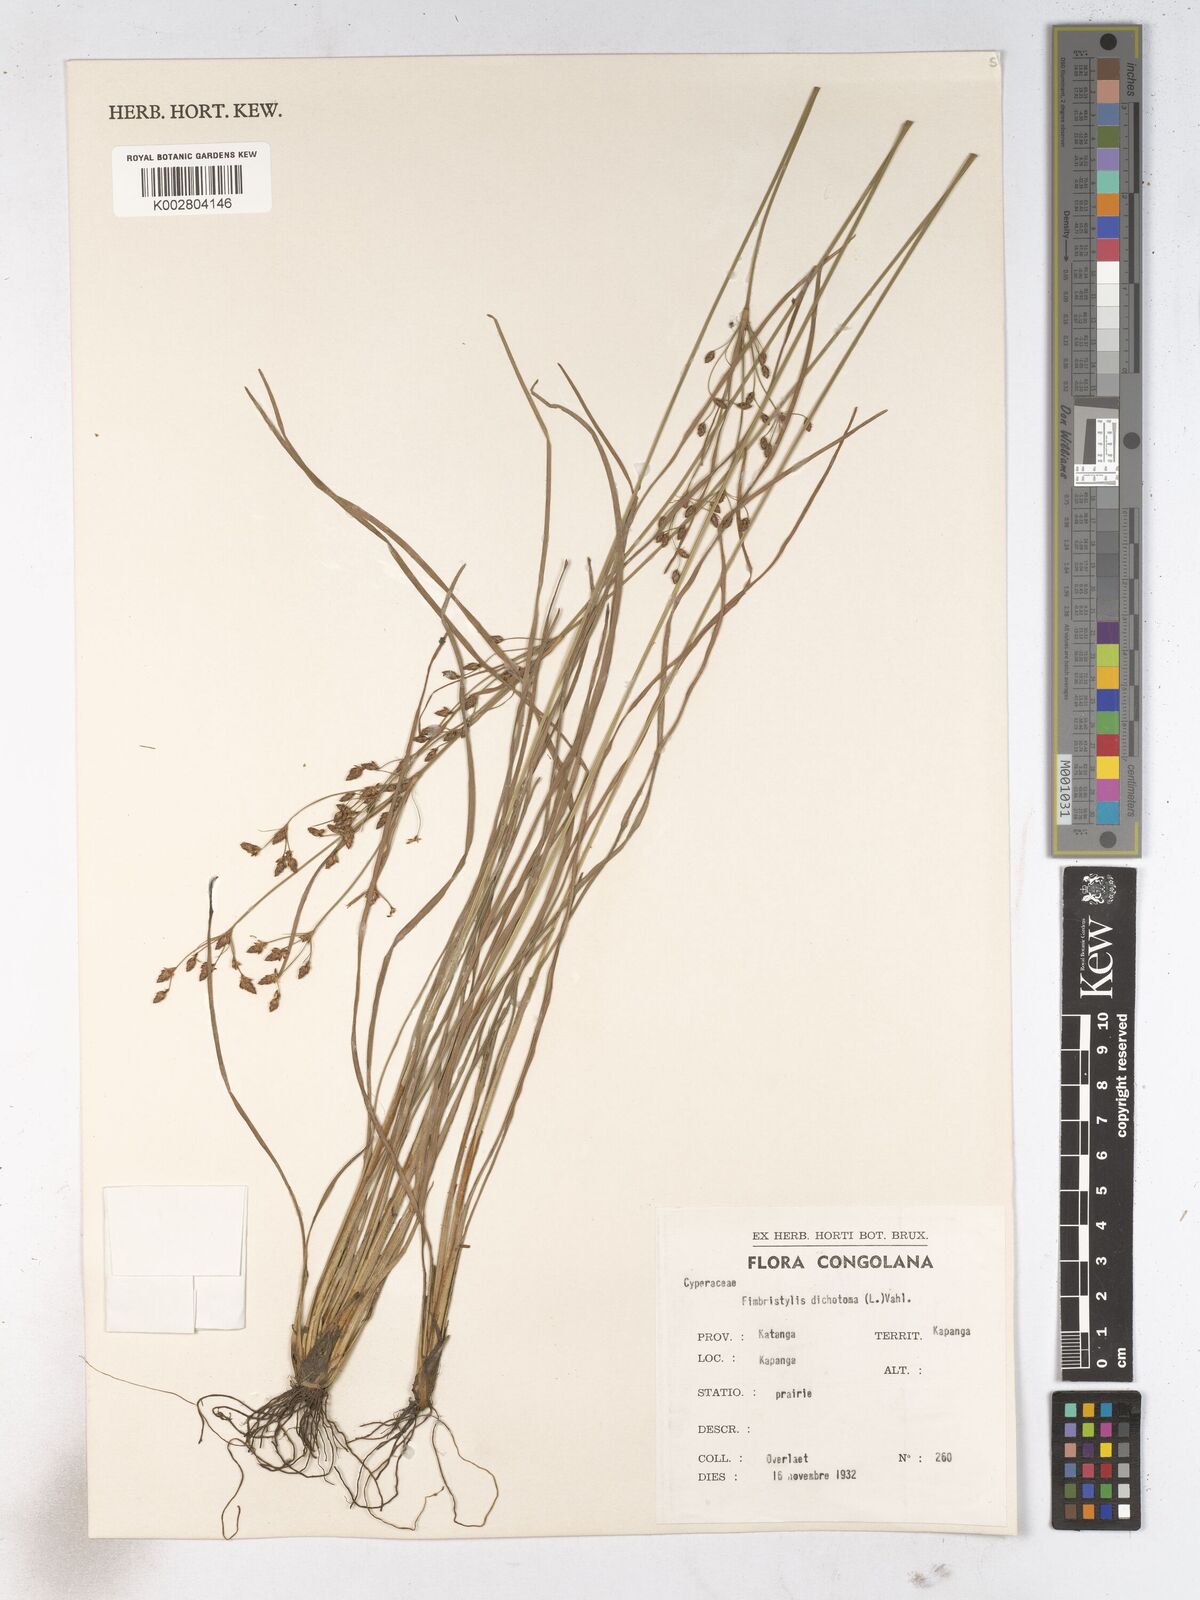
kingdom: Plantae
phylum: Tracheophyta
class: Liliopsida
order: Poales
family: Cyperaceae
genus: Fimbristylis
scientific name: Fimbristylis dichotoma
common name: Forked fimbry
